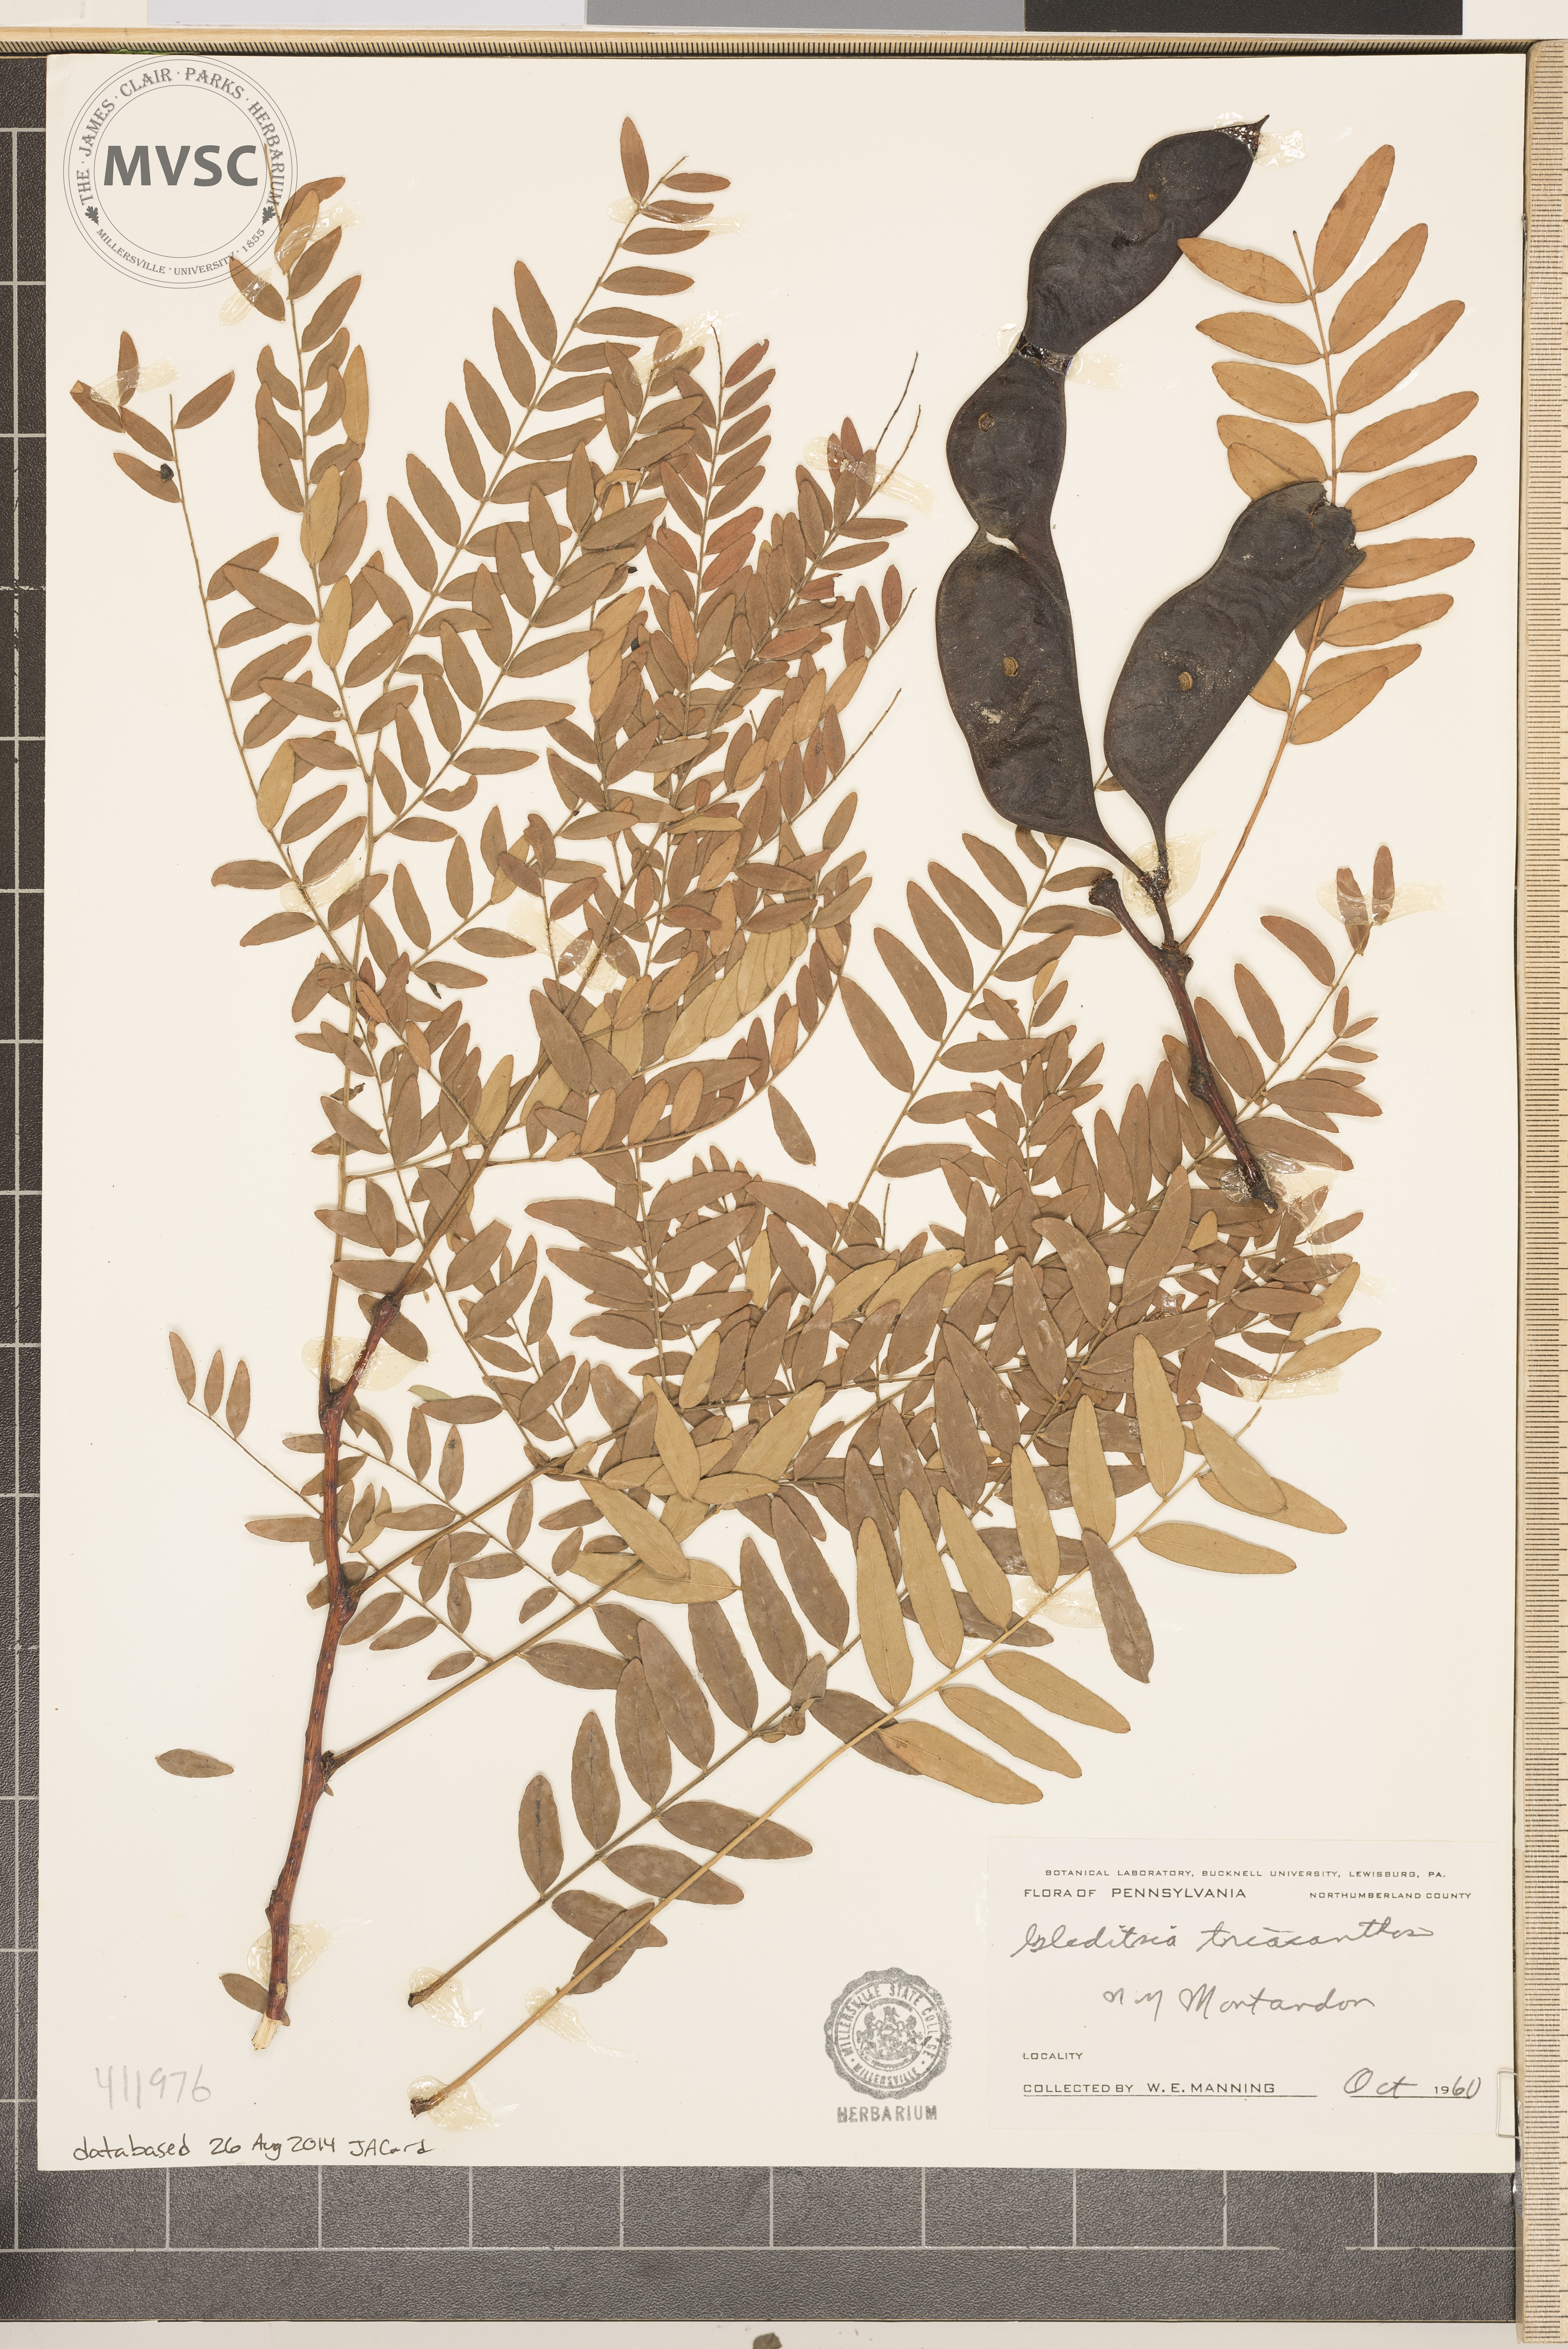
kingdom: Plantae
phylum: Tracheophyta
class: Magnoliopsida
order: Fabales
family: Fabaceae
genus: Gleditsia
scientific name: Gleditsia triacanthos
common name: Common honeylocust
